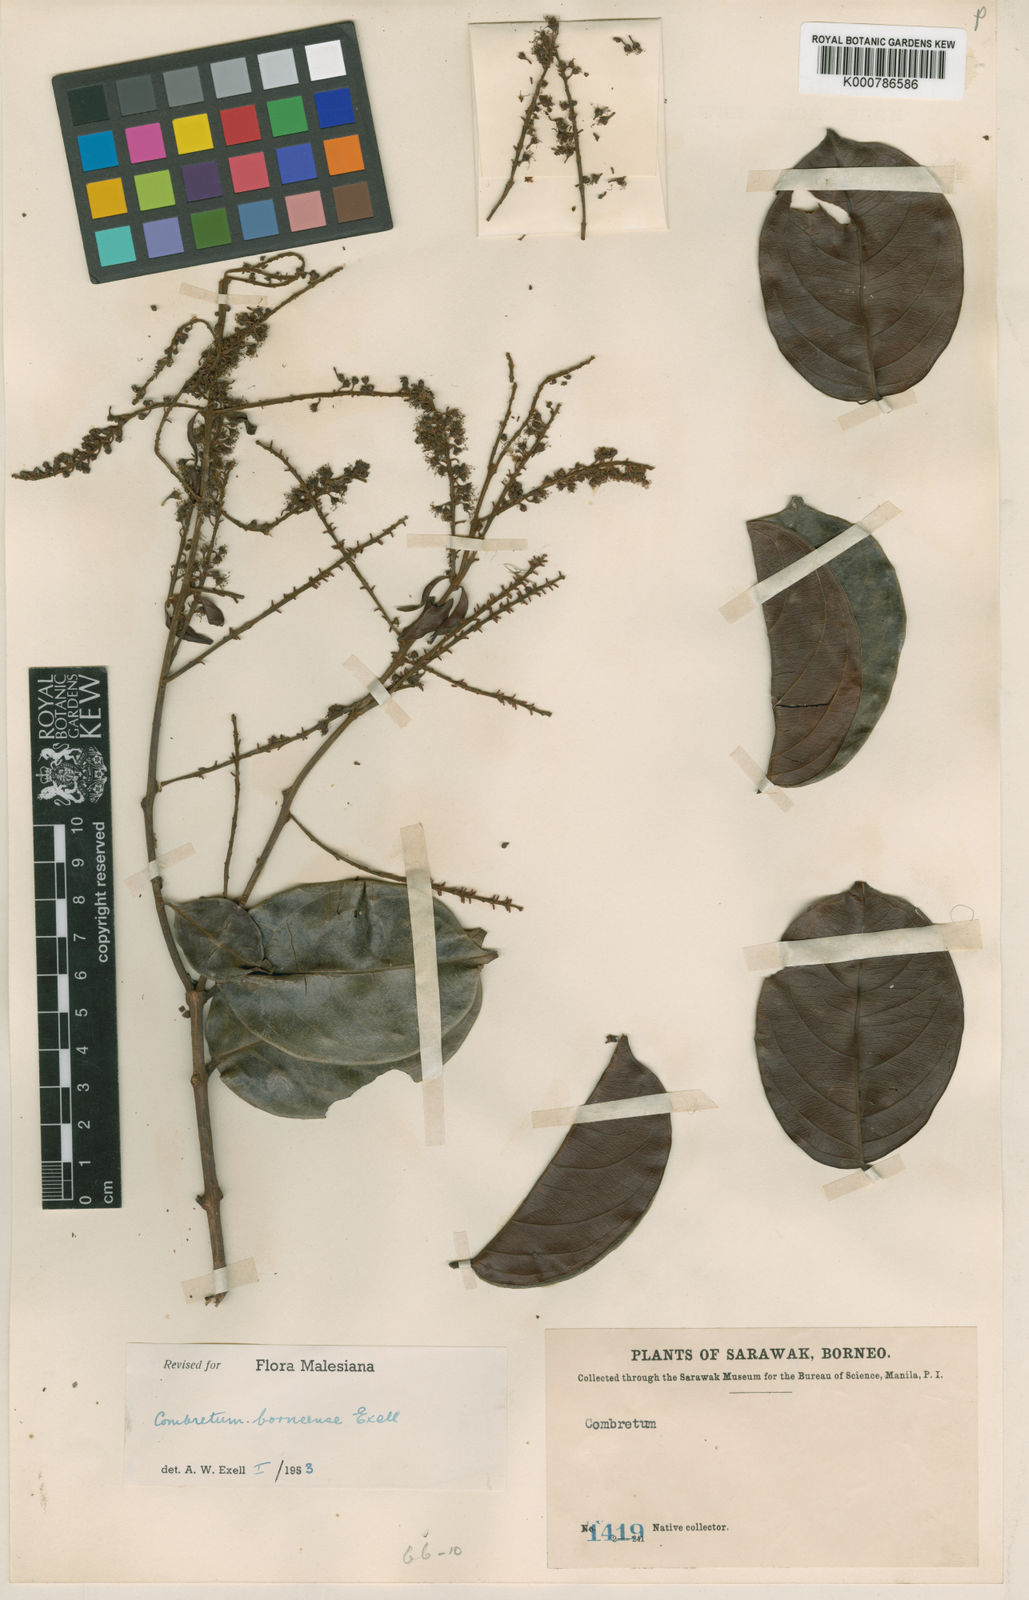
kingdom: Plantae
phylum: Tracheophyta
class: Magnoliopsida
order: Myrtales
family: Combretaceae
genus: Combretum
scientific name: Combretum griffithii
